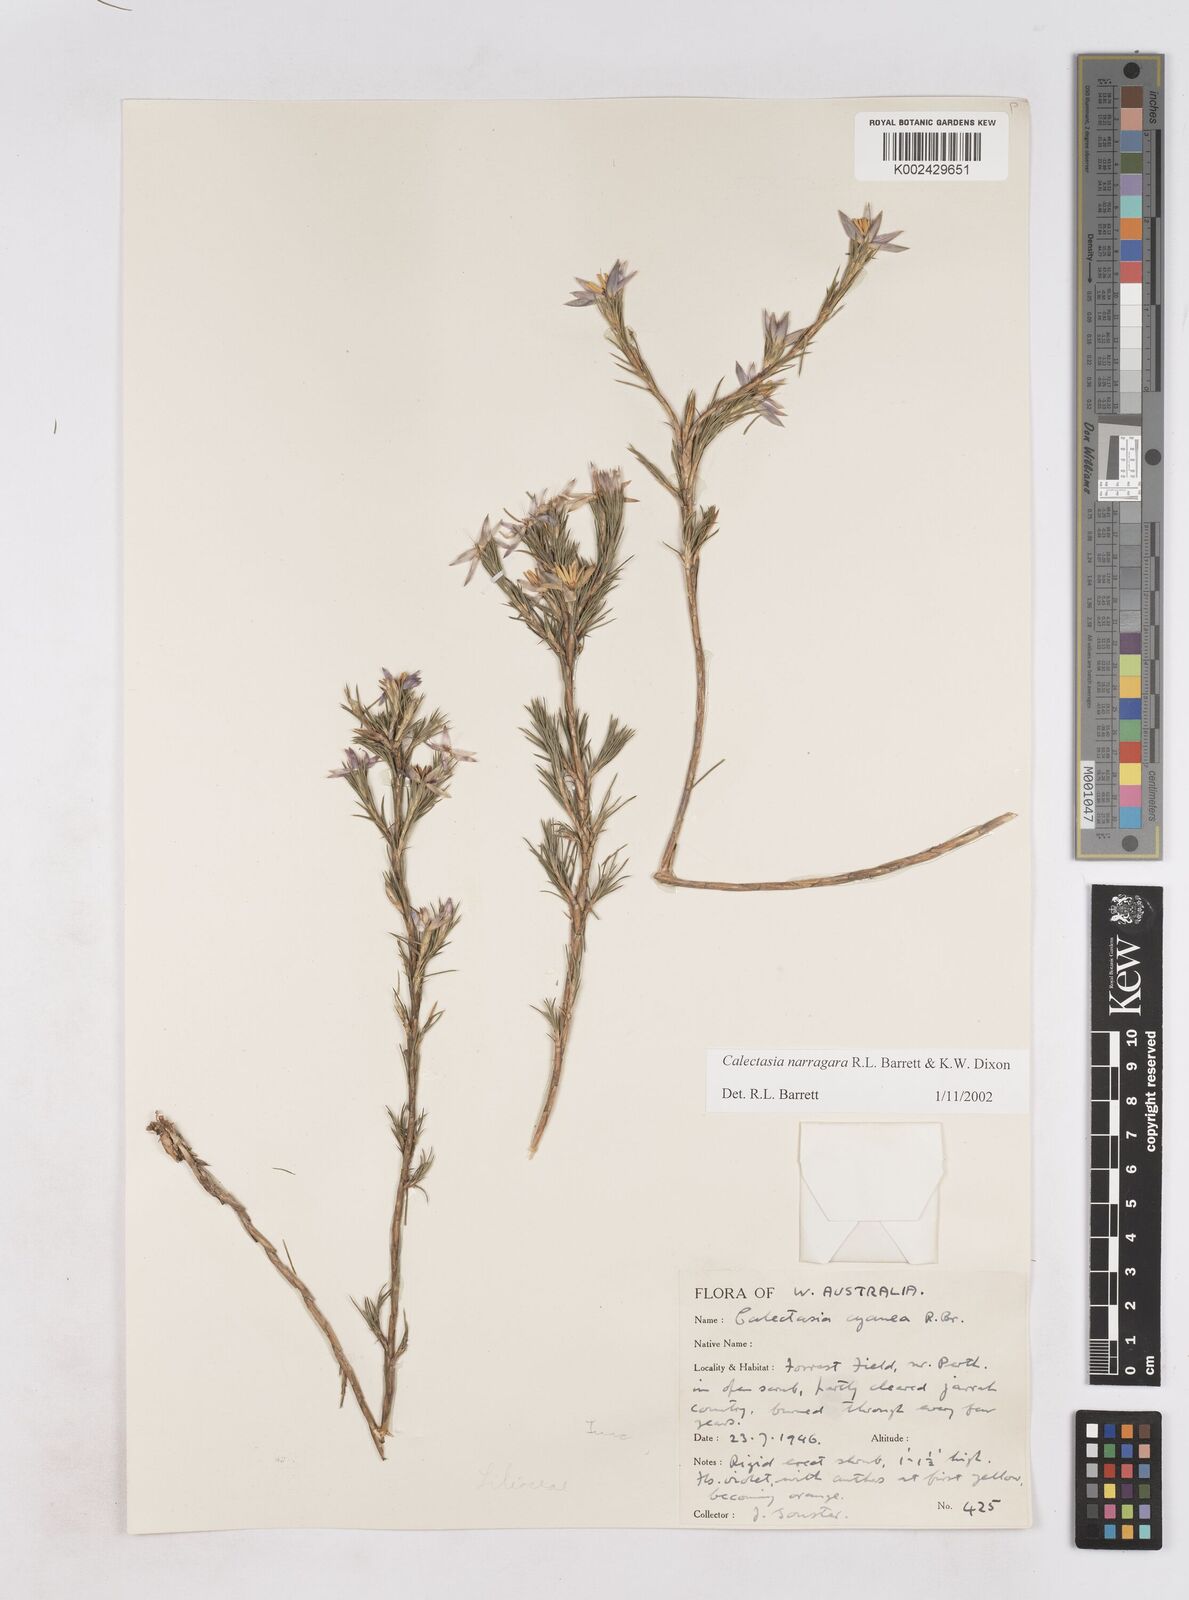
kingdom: Plantae
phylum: Tracheophyta
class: Liliopsida
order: Arecales
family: Dasypogonaceae
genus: Calectasia
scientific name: Calectasia narragara
